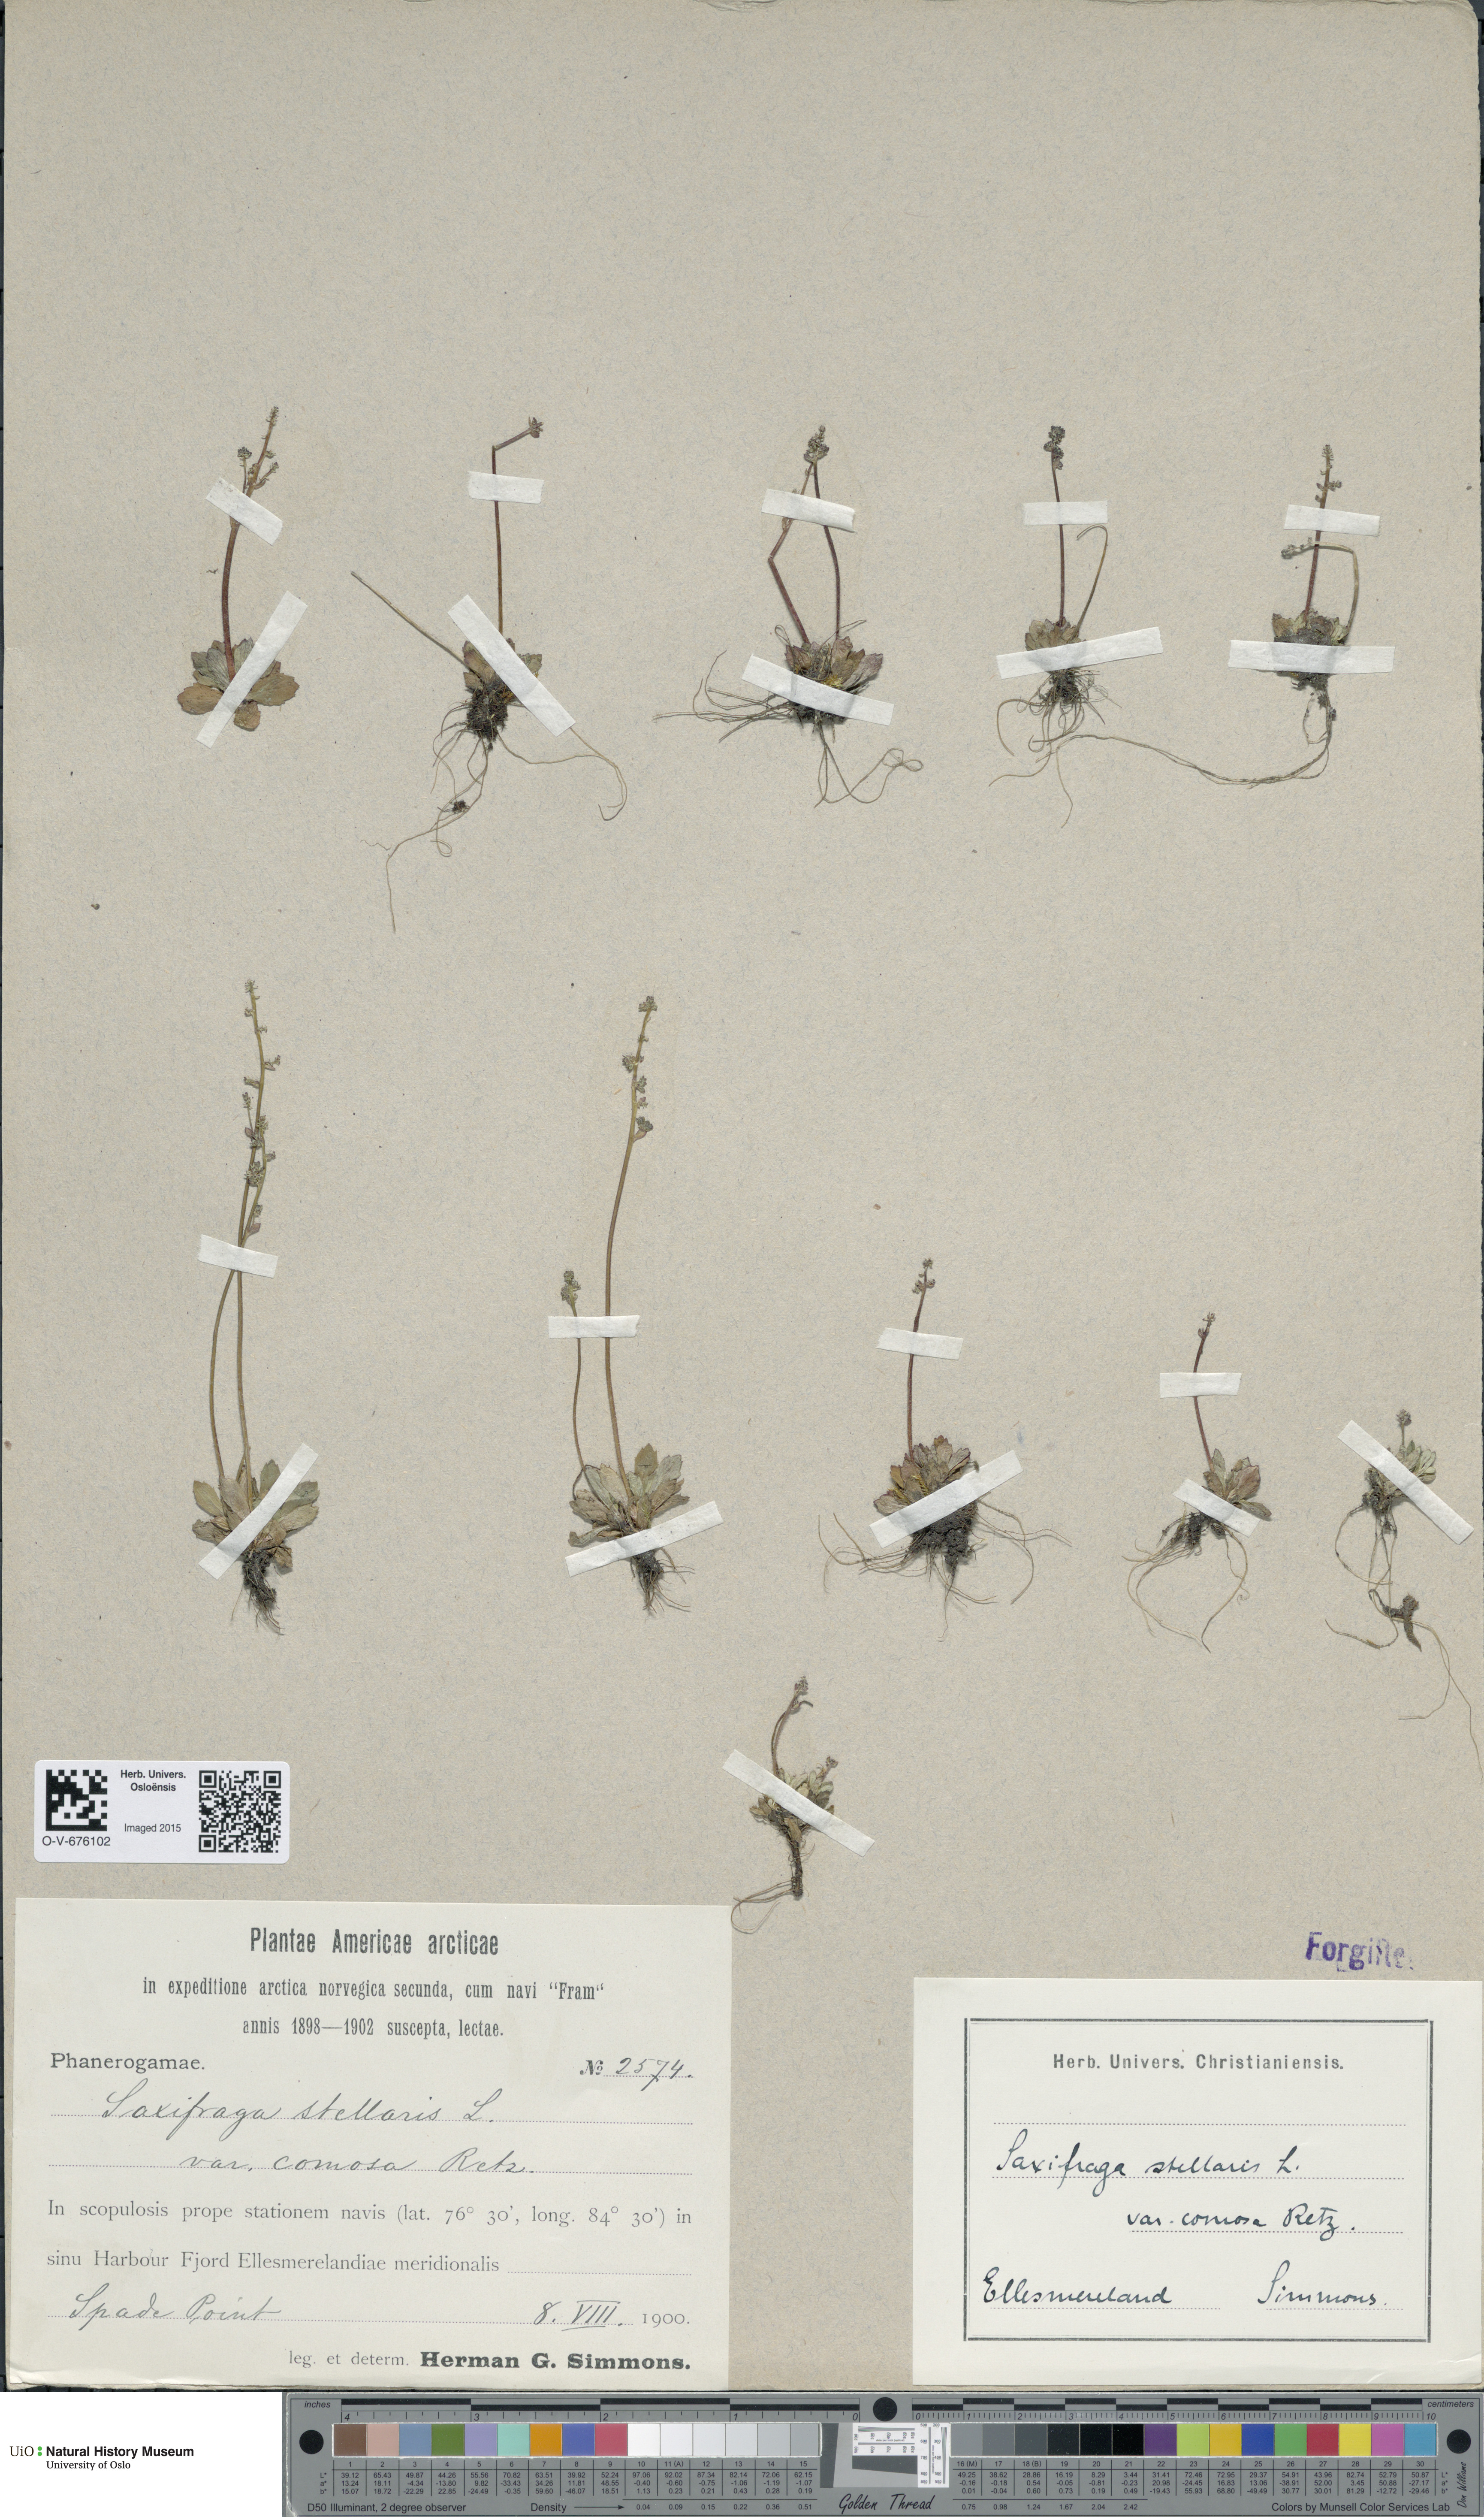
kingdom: Plantae
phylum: Tracheophyta
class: Magnoliopsida
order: Saxifragales
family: Saxifragaceae
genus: Micranthes
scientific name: Micranthes foliolosa
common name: Leafystem saxifrage
